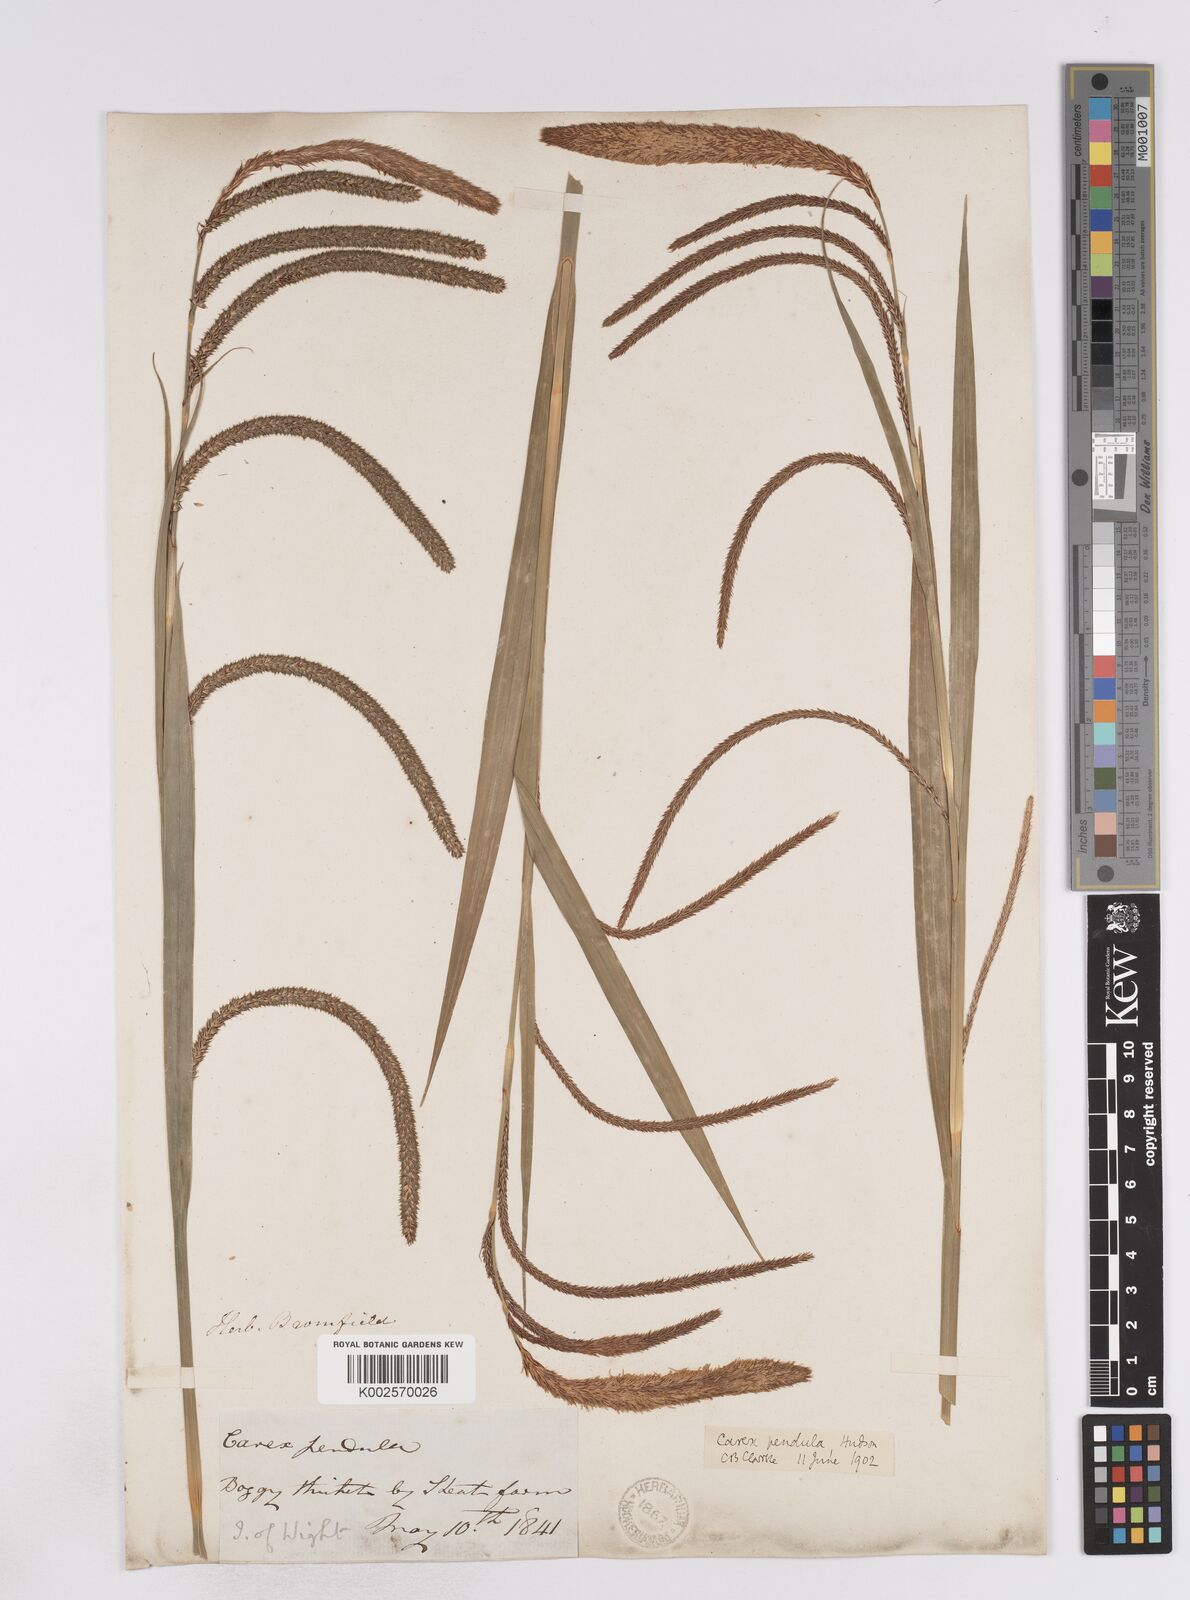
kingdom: Plantae
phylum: Tracheophyta
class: Liliopsida
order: Poales
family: Cyperaceae
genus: Carex
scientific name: Carex pendula
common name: Pendulous sedge
